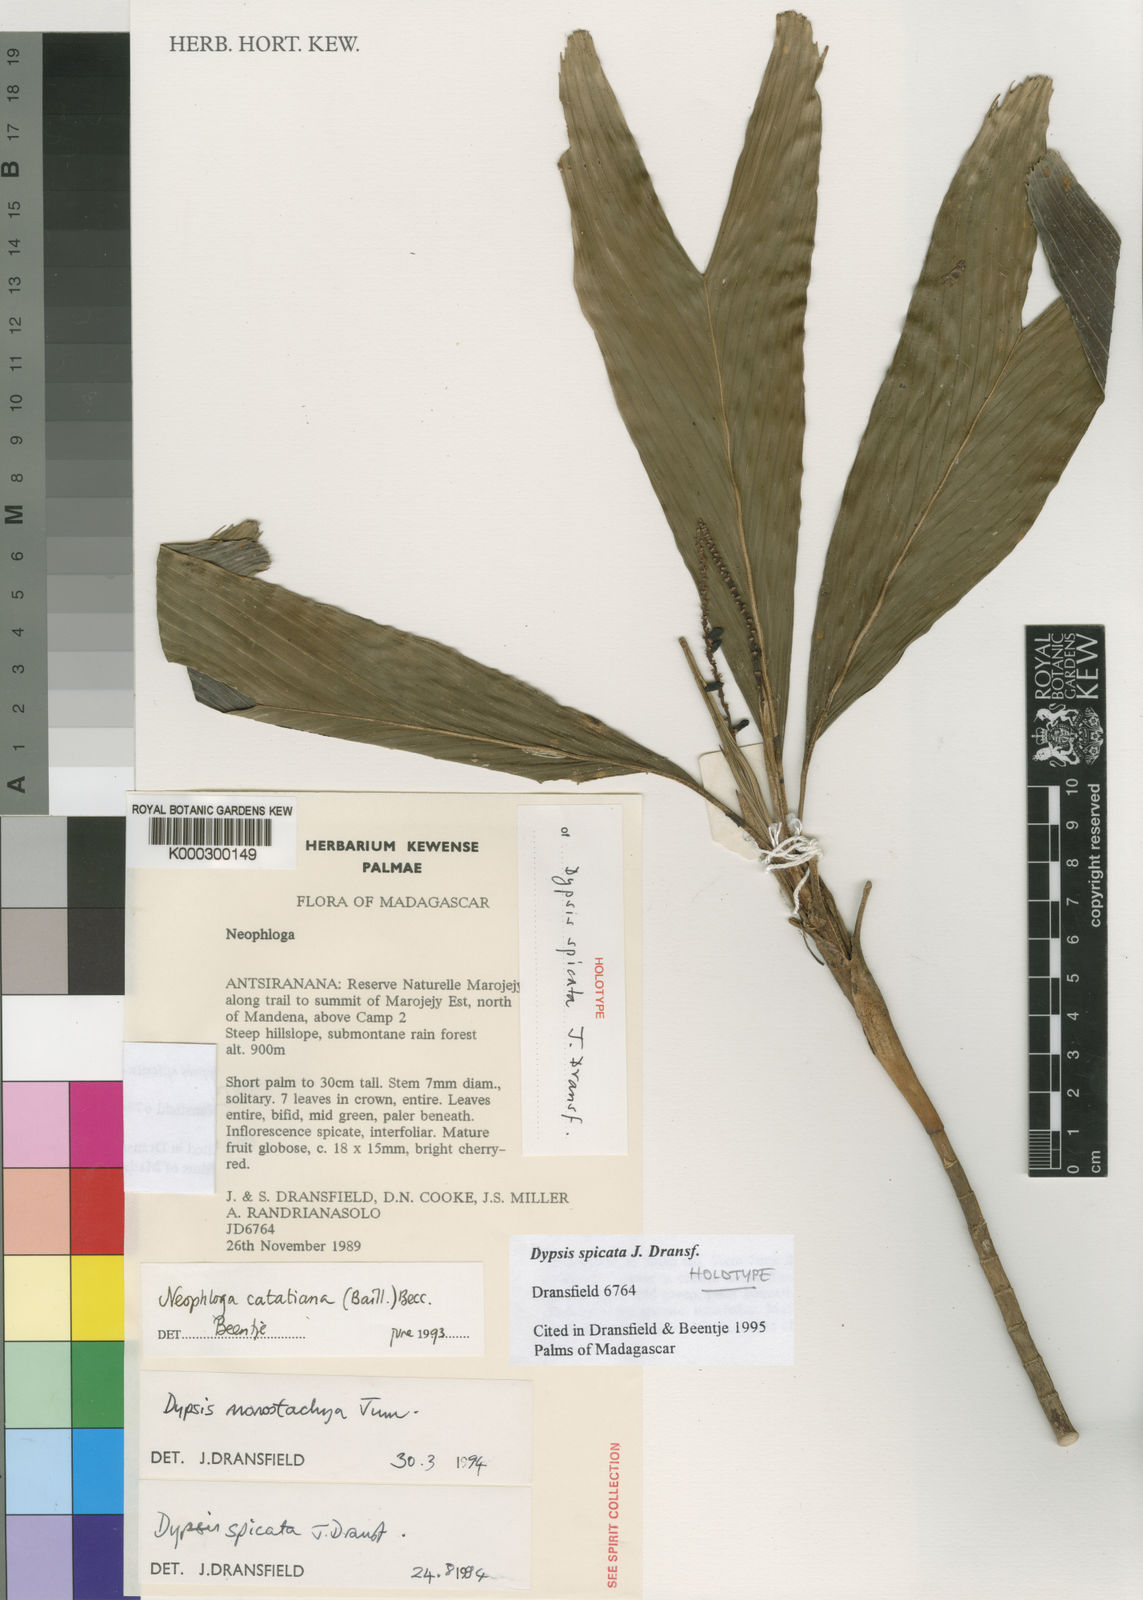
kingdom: Plantae
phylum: Tracheophyta
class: Liliopsida
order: Arecales
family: Arecaceae
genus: Dypsis
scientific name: Dypsis spicata
